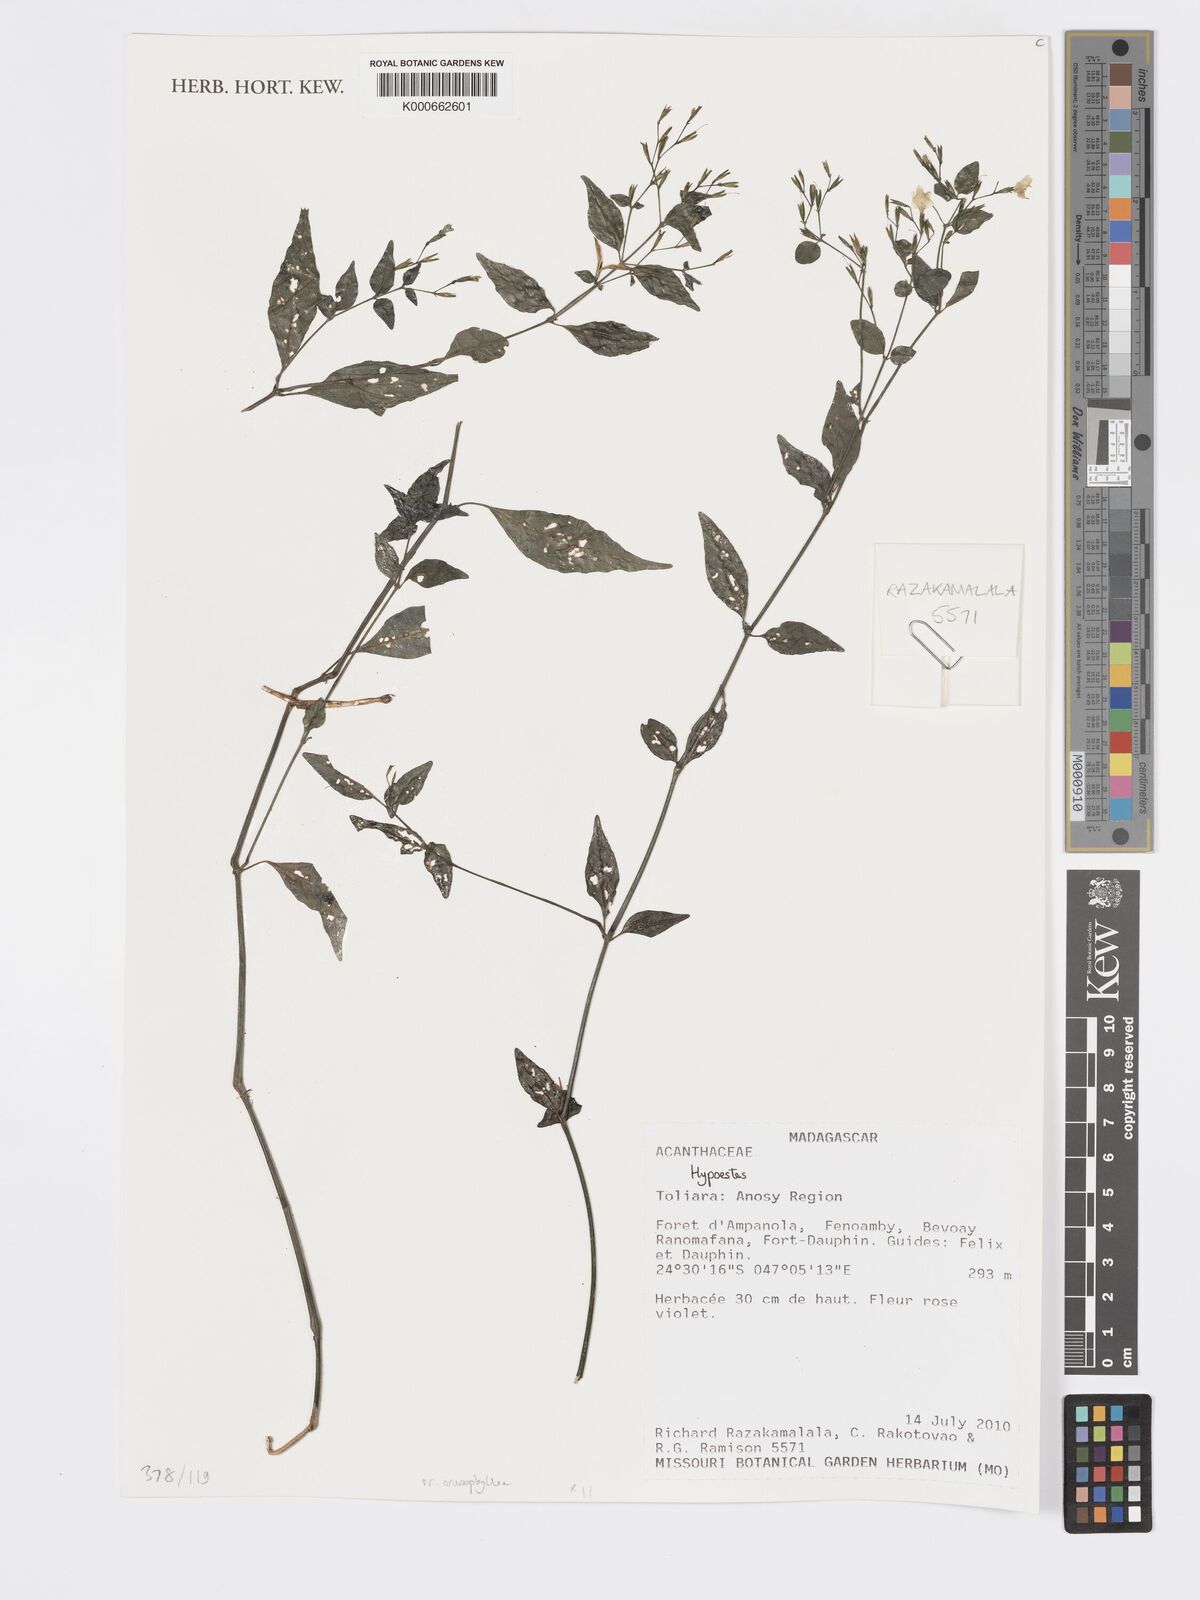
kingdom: Plantae
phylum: Tracheophyta
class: Magnoliopsida
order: Lamiales
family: Acanthaceae
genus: Hypoestes
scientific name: Hypoestes
